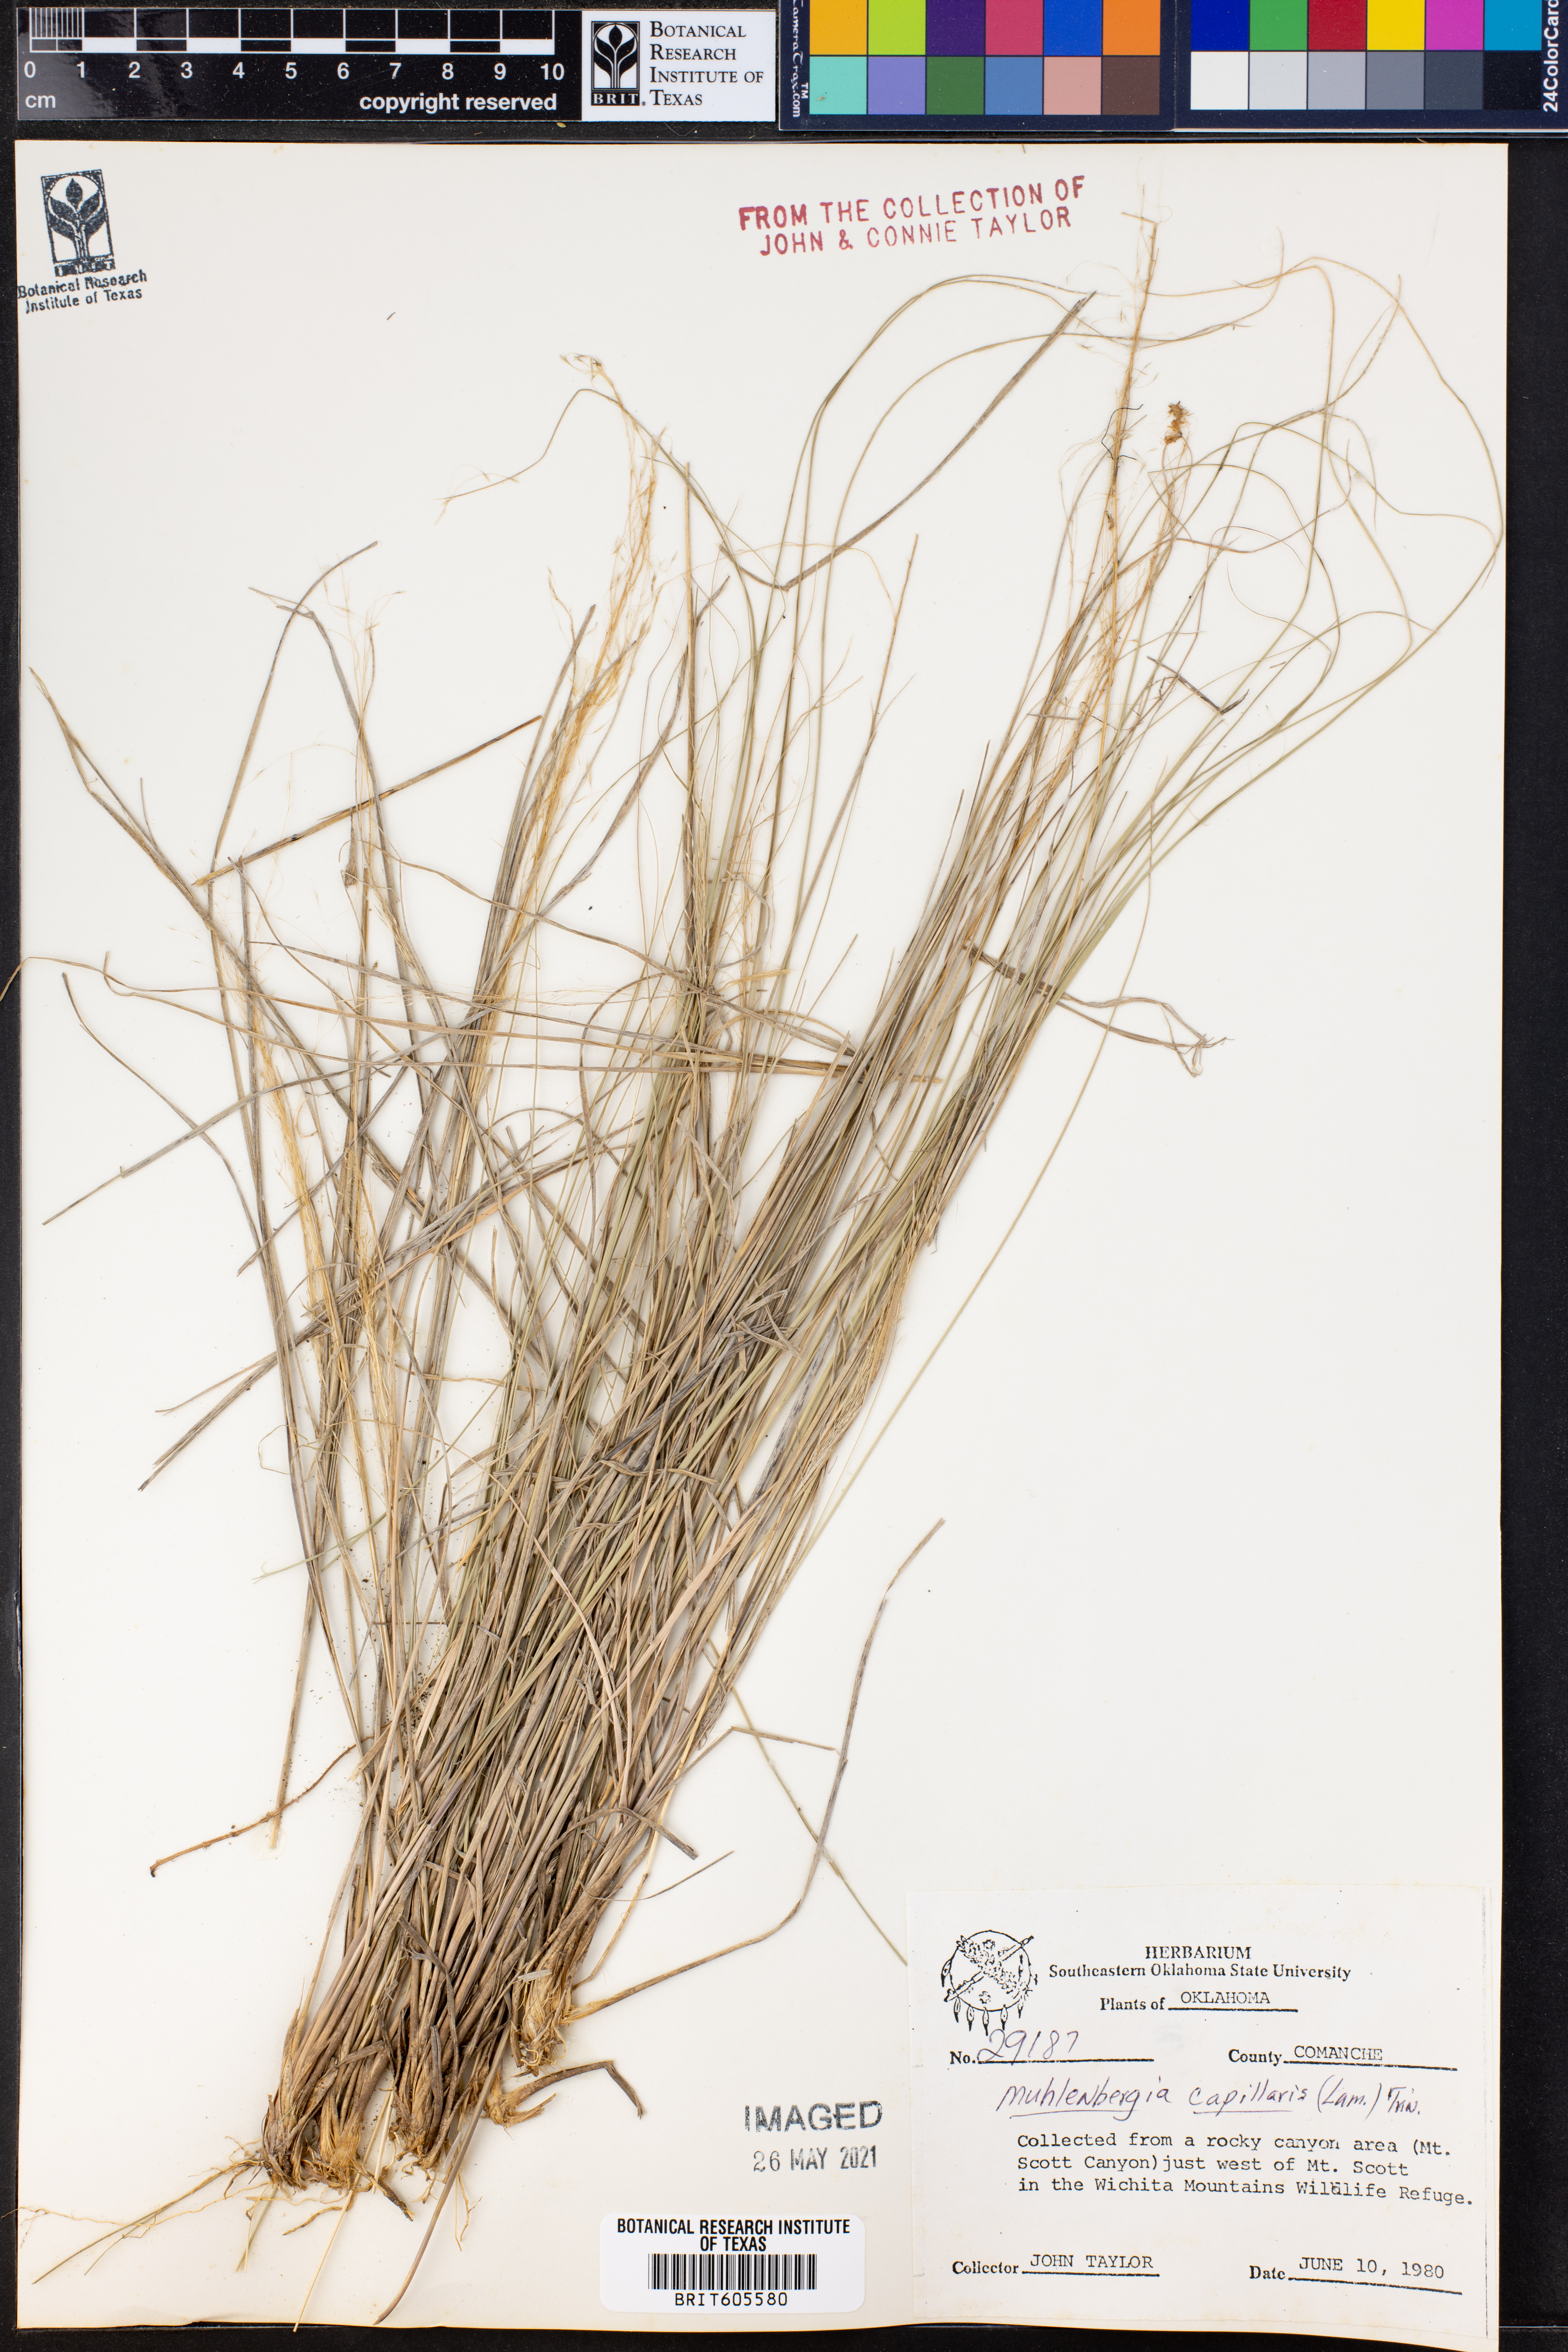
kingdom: Plantae
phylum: Tracheophyta
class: Liliopsida
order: Poales
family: Poaceae
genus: Muhlenbergia
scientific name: Muhlenbergia capillaris
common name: Purple grass
